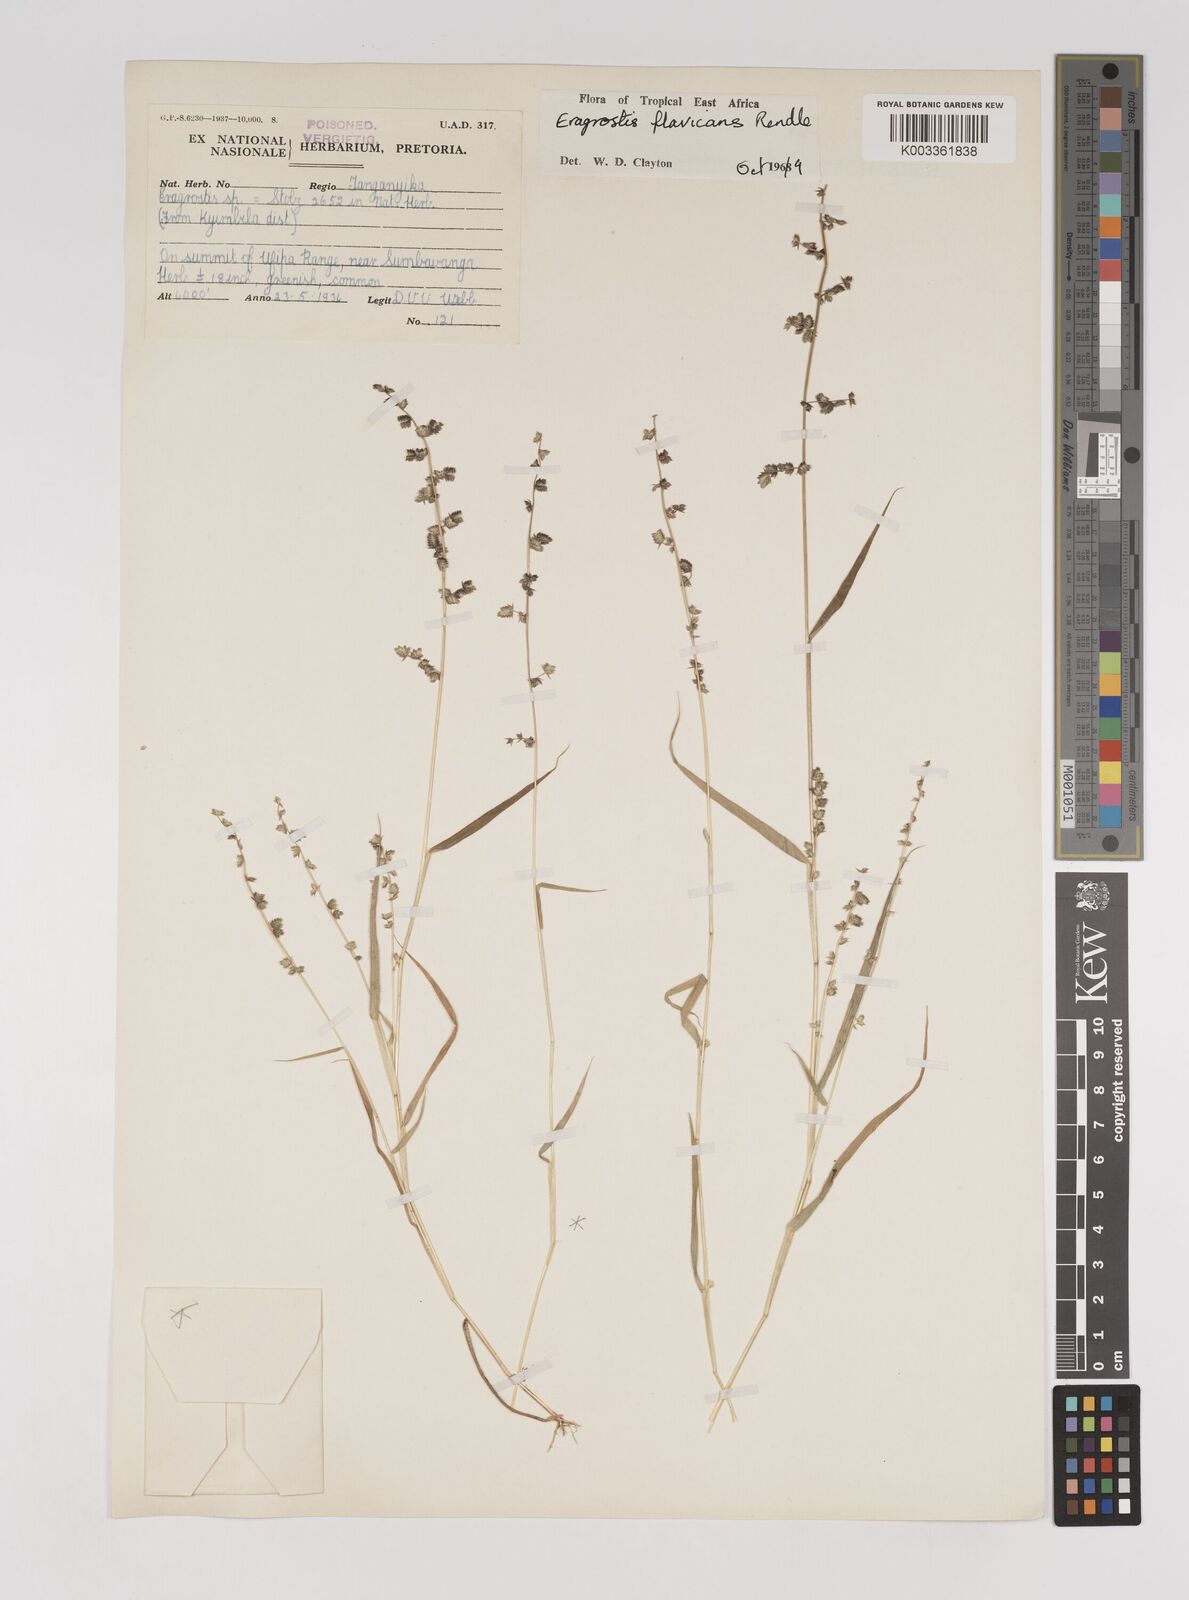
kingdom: Plantae
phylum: Tracheophyta
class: Liliopsida
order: Poales
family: Poaceae
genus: Eragrostis
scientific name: Eragrostis flavicans
